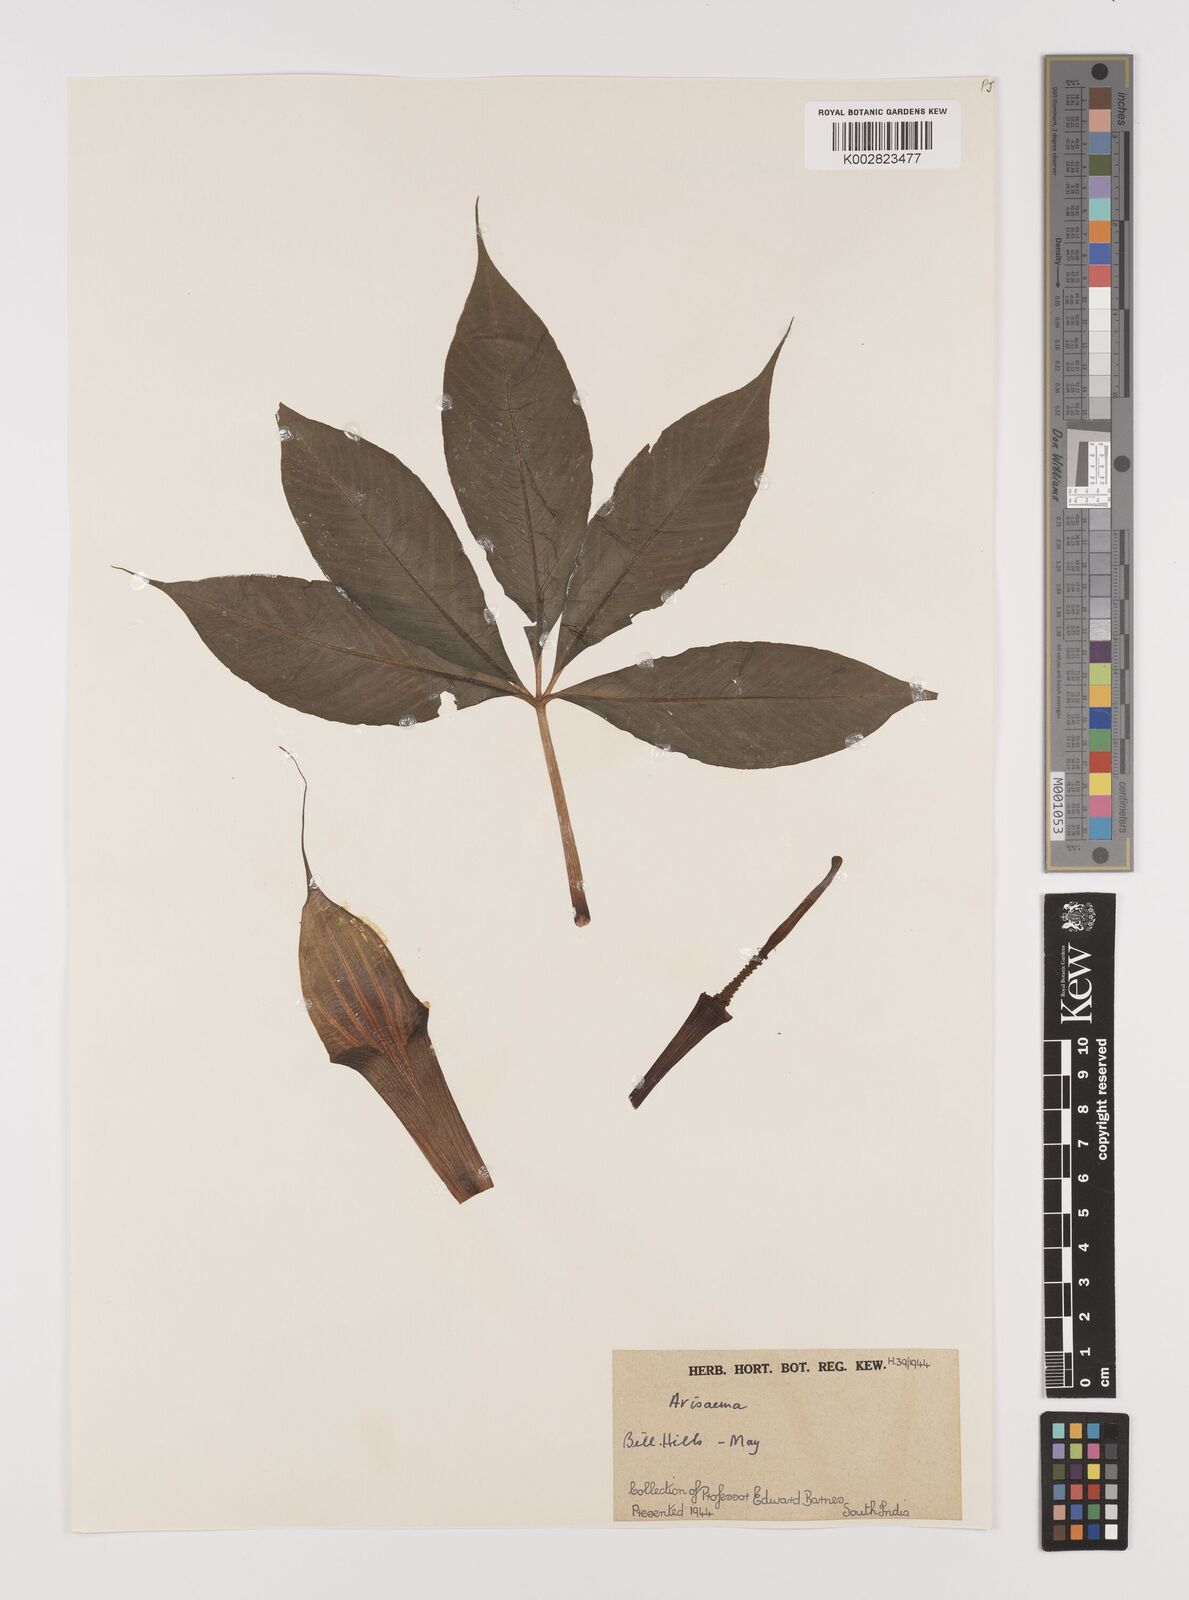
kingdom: Plantae
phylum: Tracheophyta
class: Liliopsida
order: Alismatales
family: Araceae
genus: Arisaema
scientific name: Arisaema
